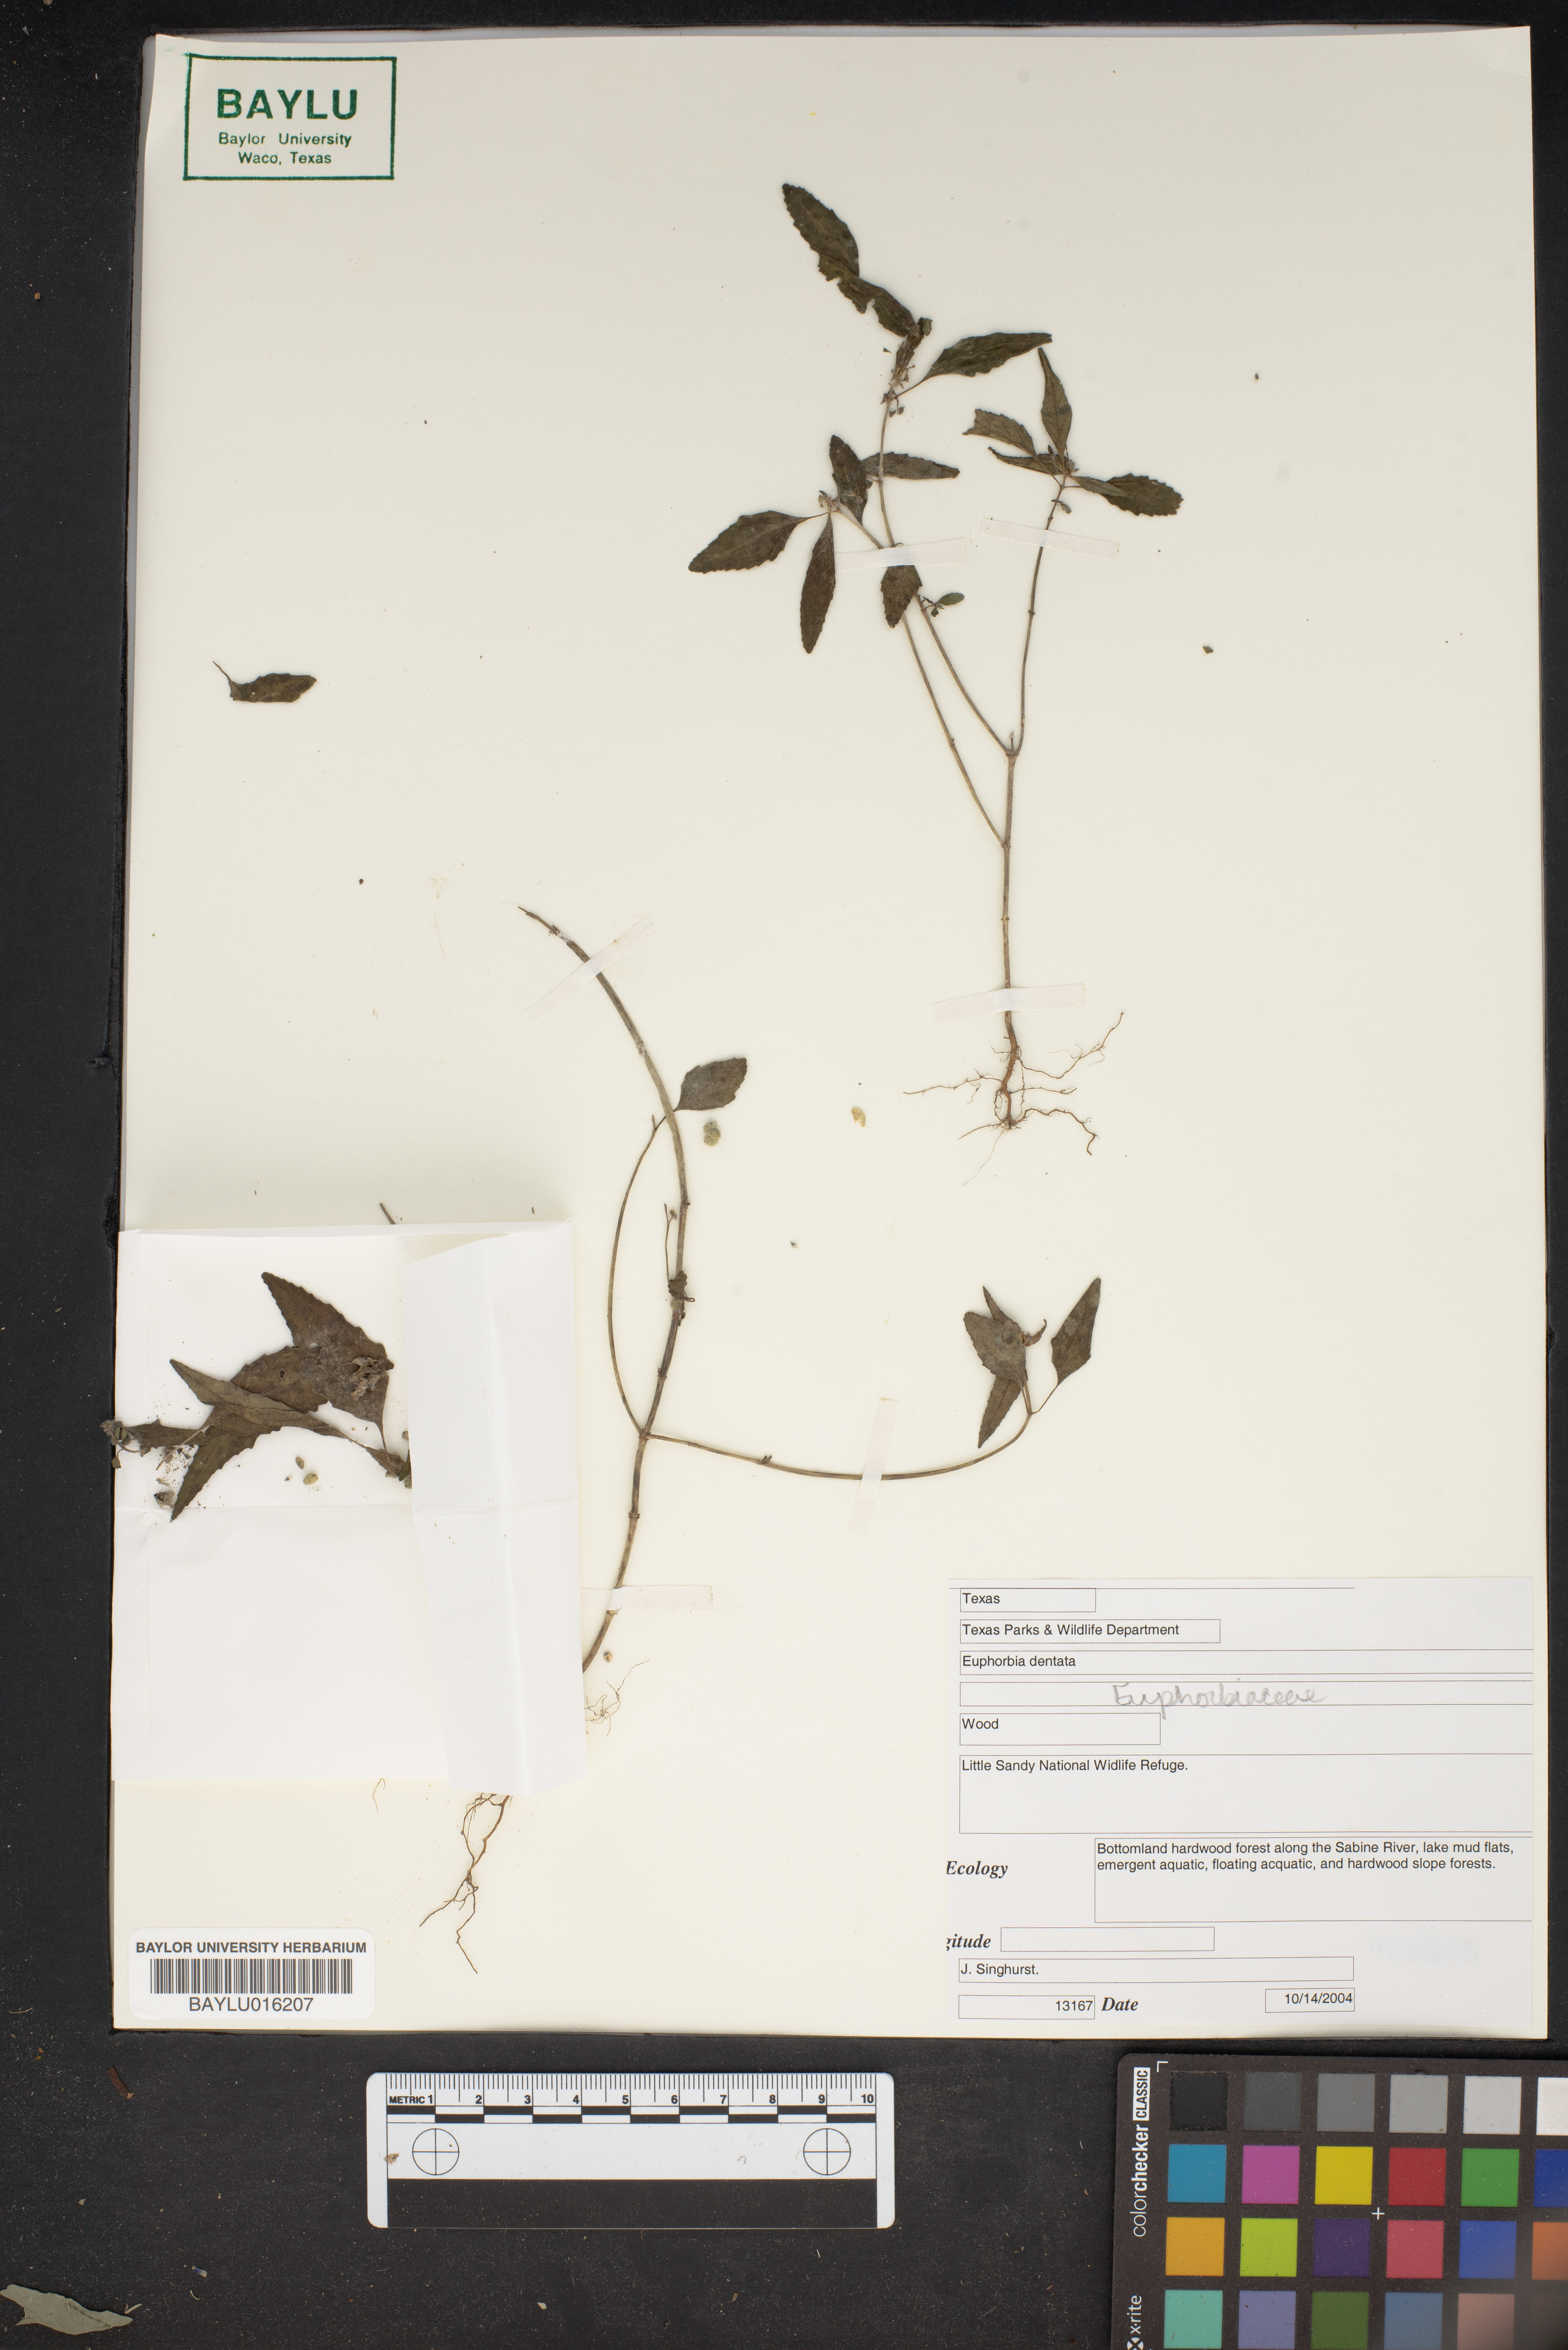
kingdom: Plantae
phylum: Tracheophyta
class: Magnoliopsida
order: Malpighiales
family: Euphorbiaceae
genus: Euphorbia
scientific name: Euphorbia dentata
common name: Dentate spurge
